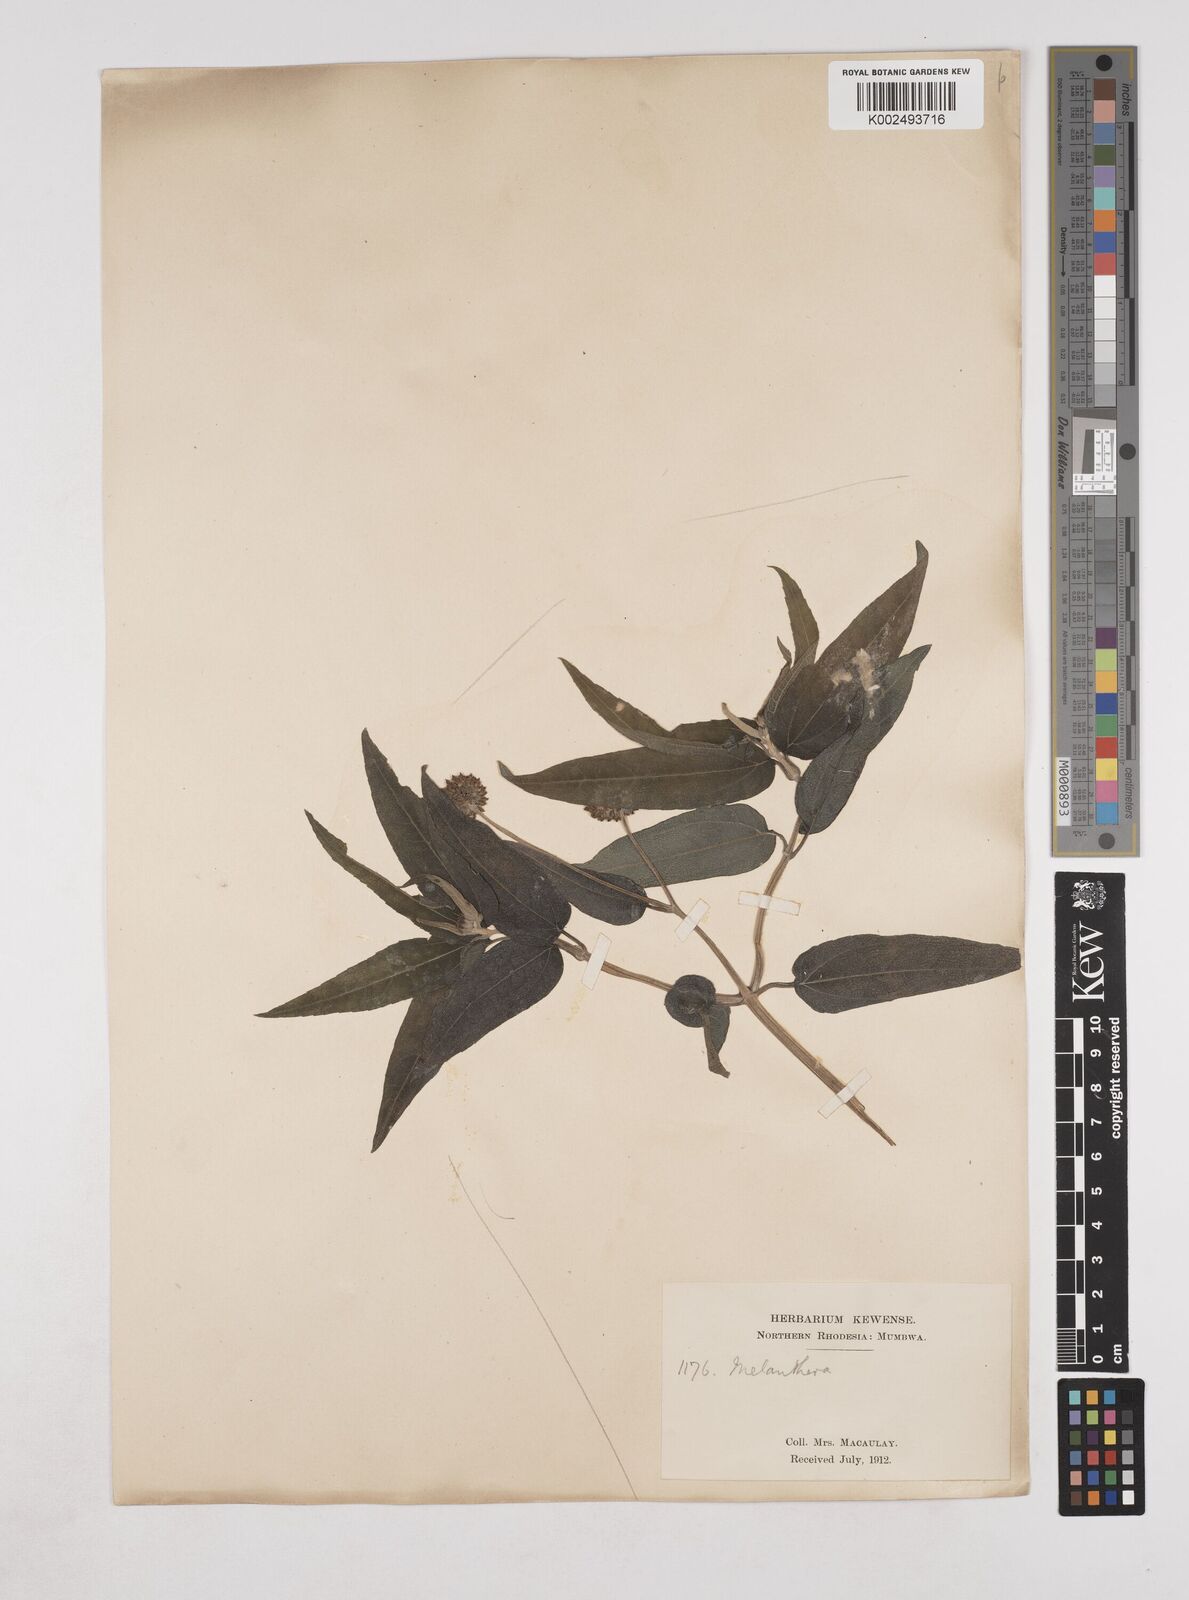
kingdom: Plantae
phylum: Tracheophyta
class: Magnoliopsida
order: Asterales
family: Asteraceae
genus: Lipotriche
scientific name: Lipotriche scandens
